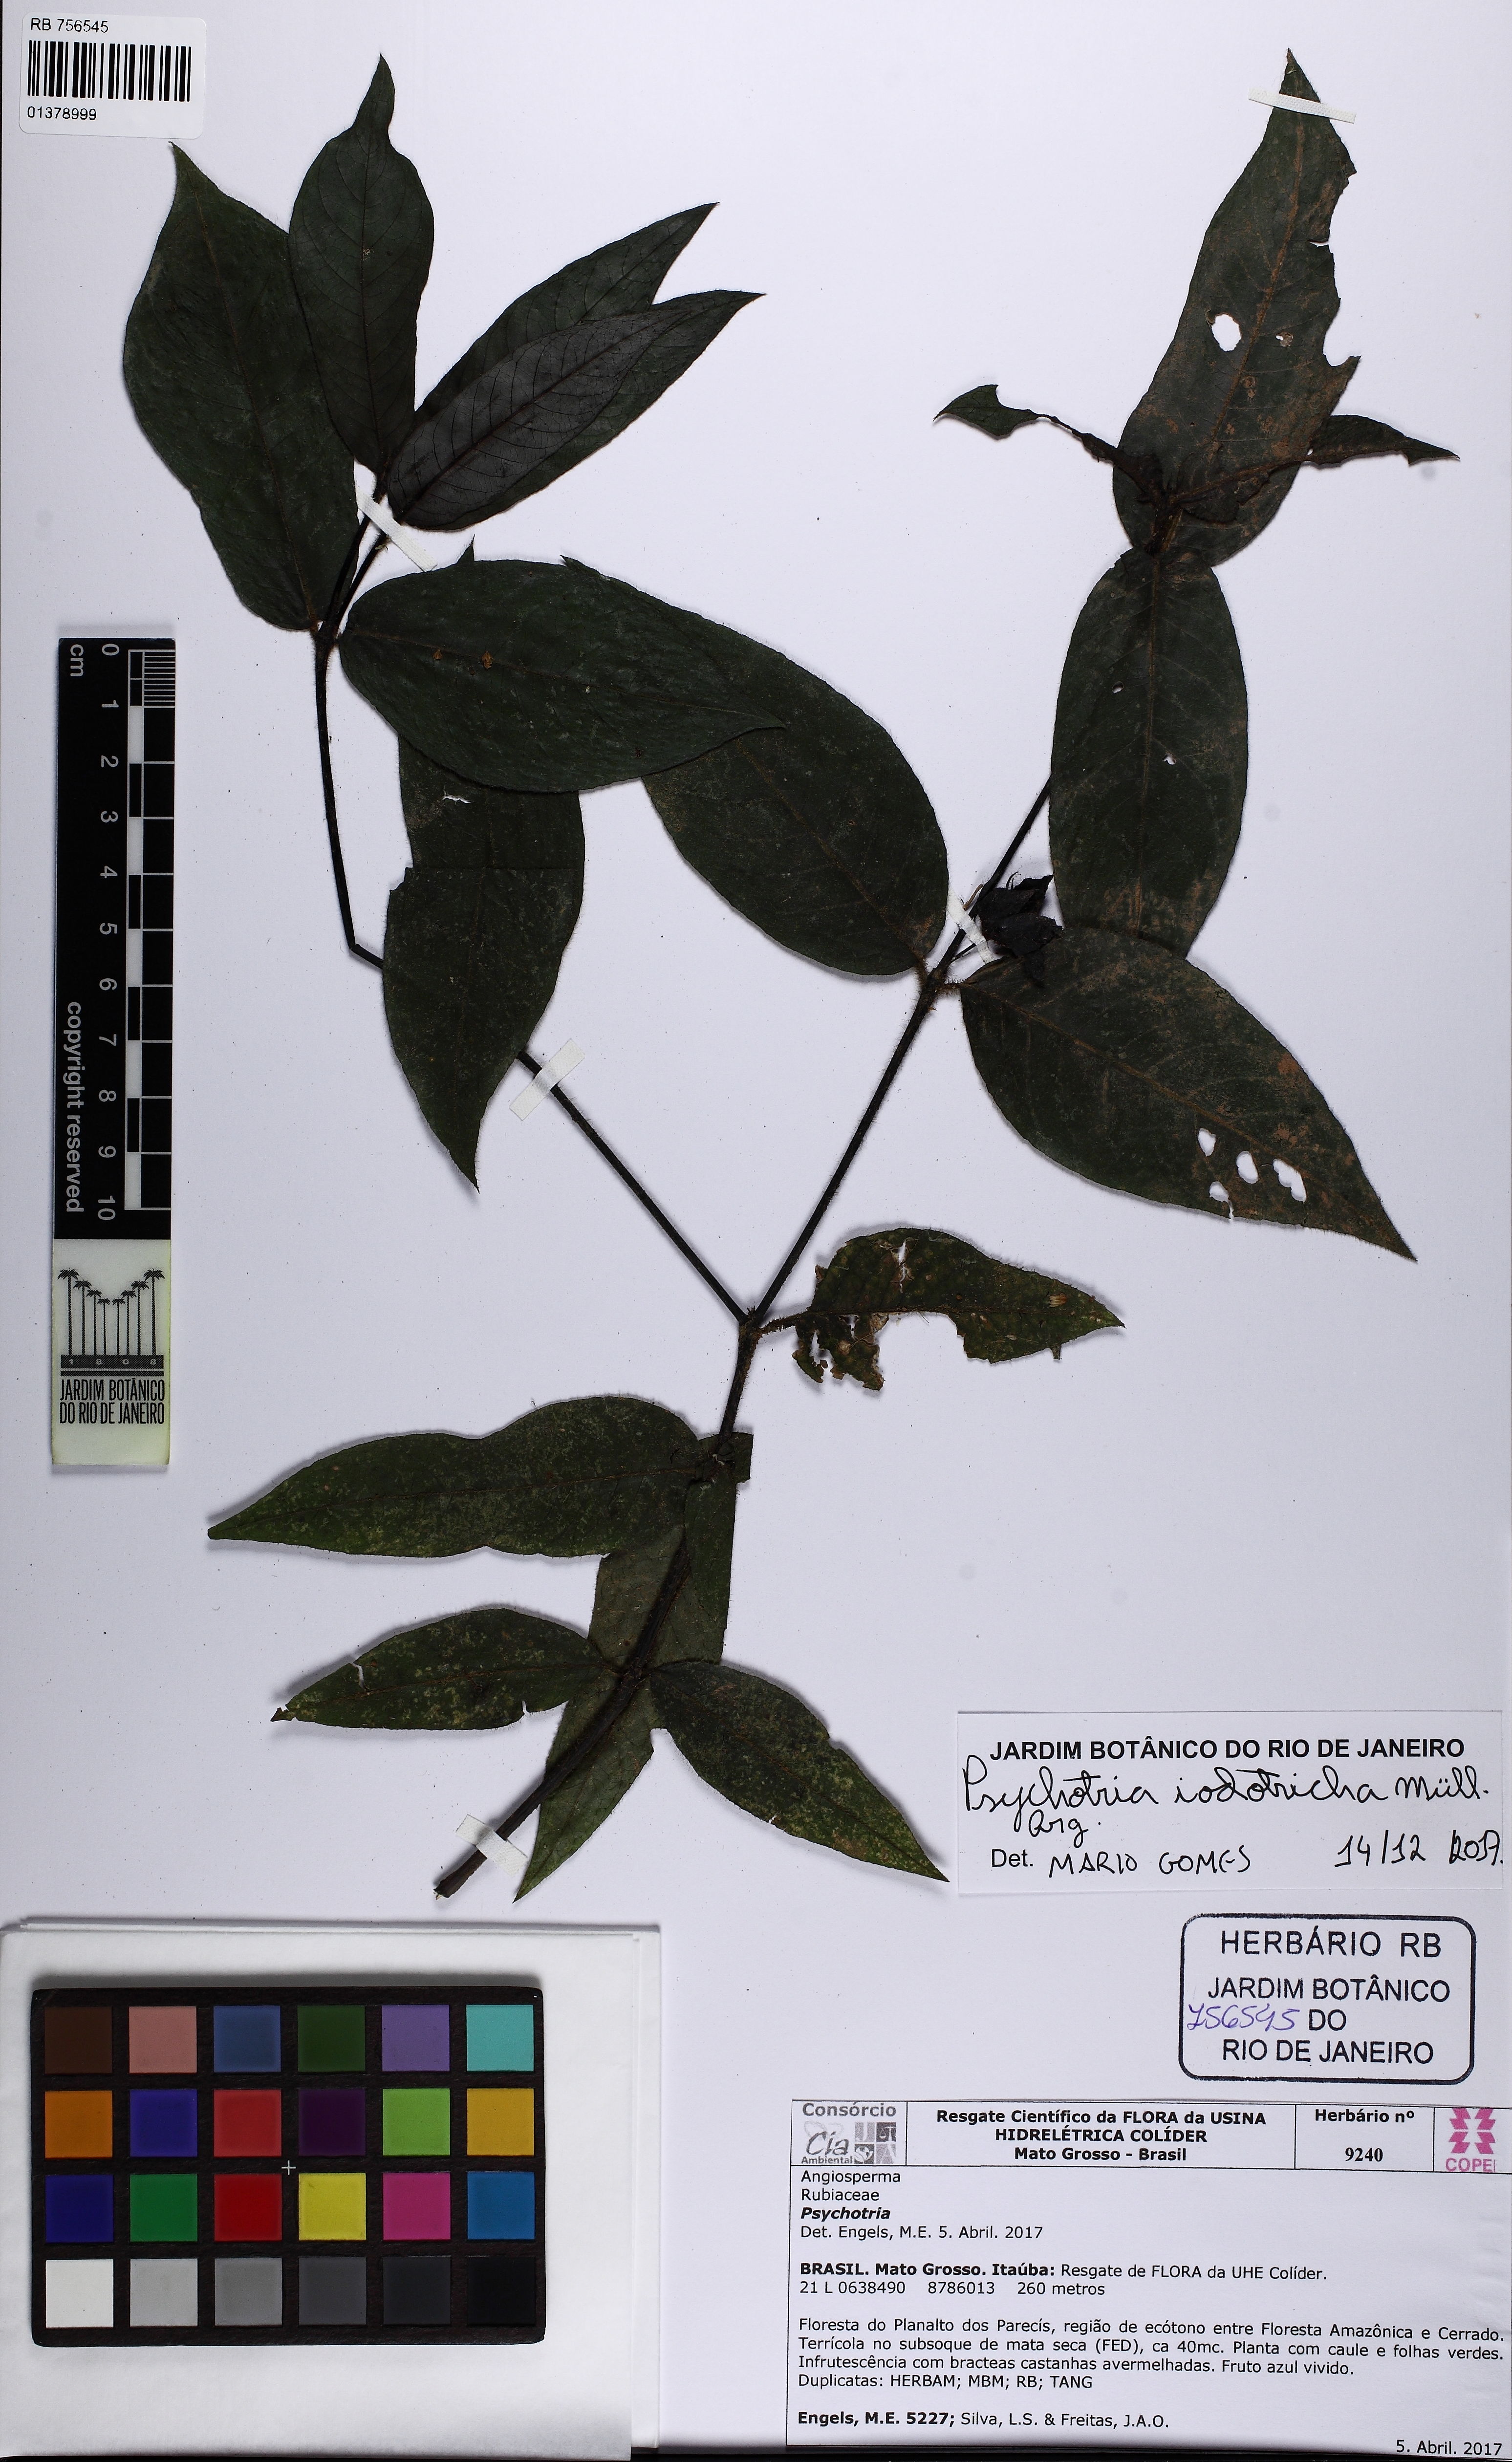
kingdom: Plantae
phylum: Tracheophyta
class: Magnoliopsida
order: Gentianales
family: Rubiaceae
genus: Palicourea
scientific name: Palicourea iodotricha
